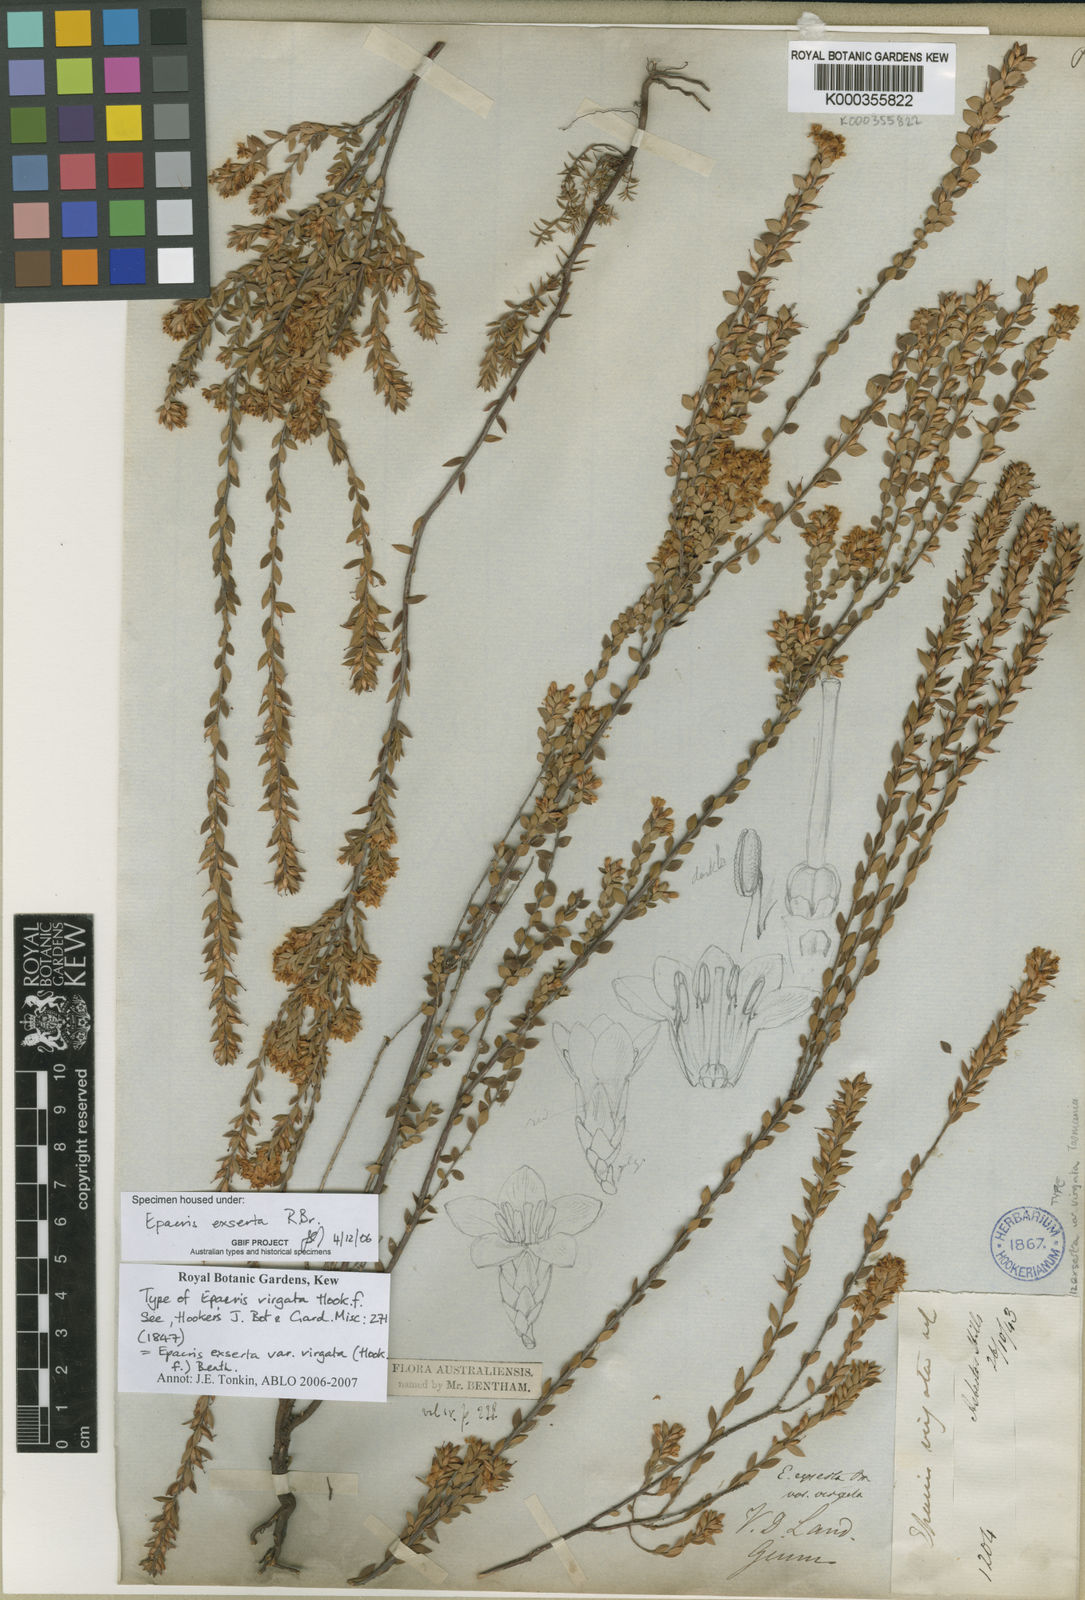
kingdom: Plantae
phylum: Tracheophyta
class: Magnoliopsida
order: Ericales
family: Ericaceae
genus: Epacris
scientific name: Epacris exserta
